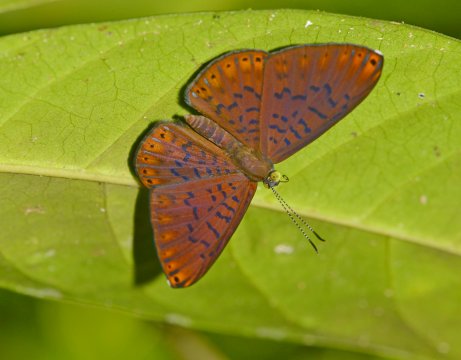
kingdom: Animalia
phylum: Arthropoda
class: Insecta
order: Lepidoptera
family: Riodinidae
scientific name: Riodinidae
